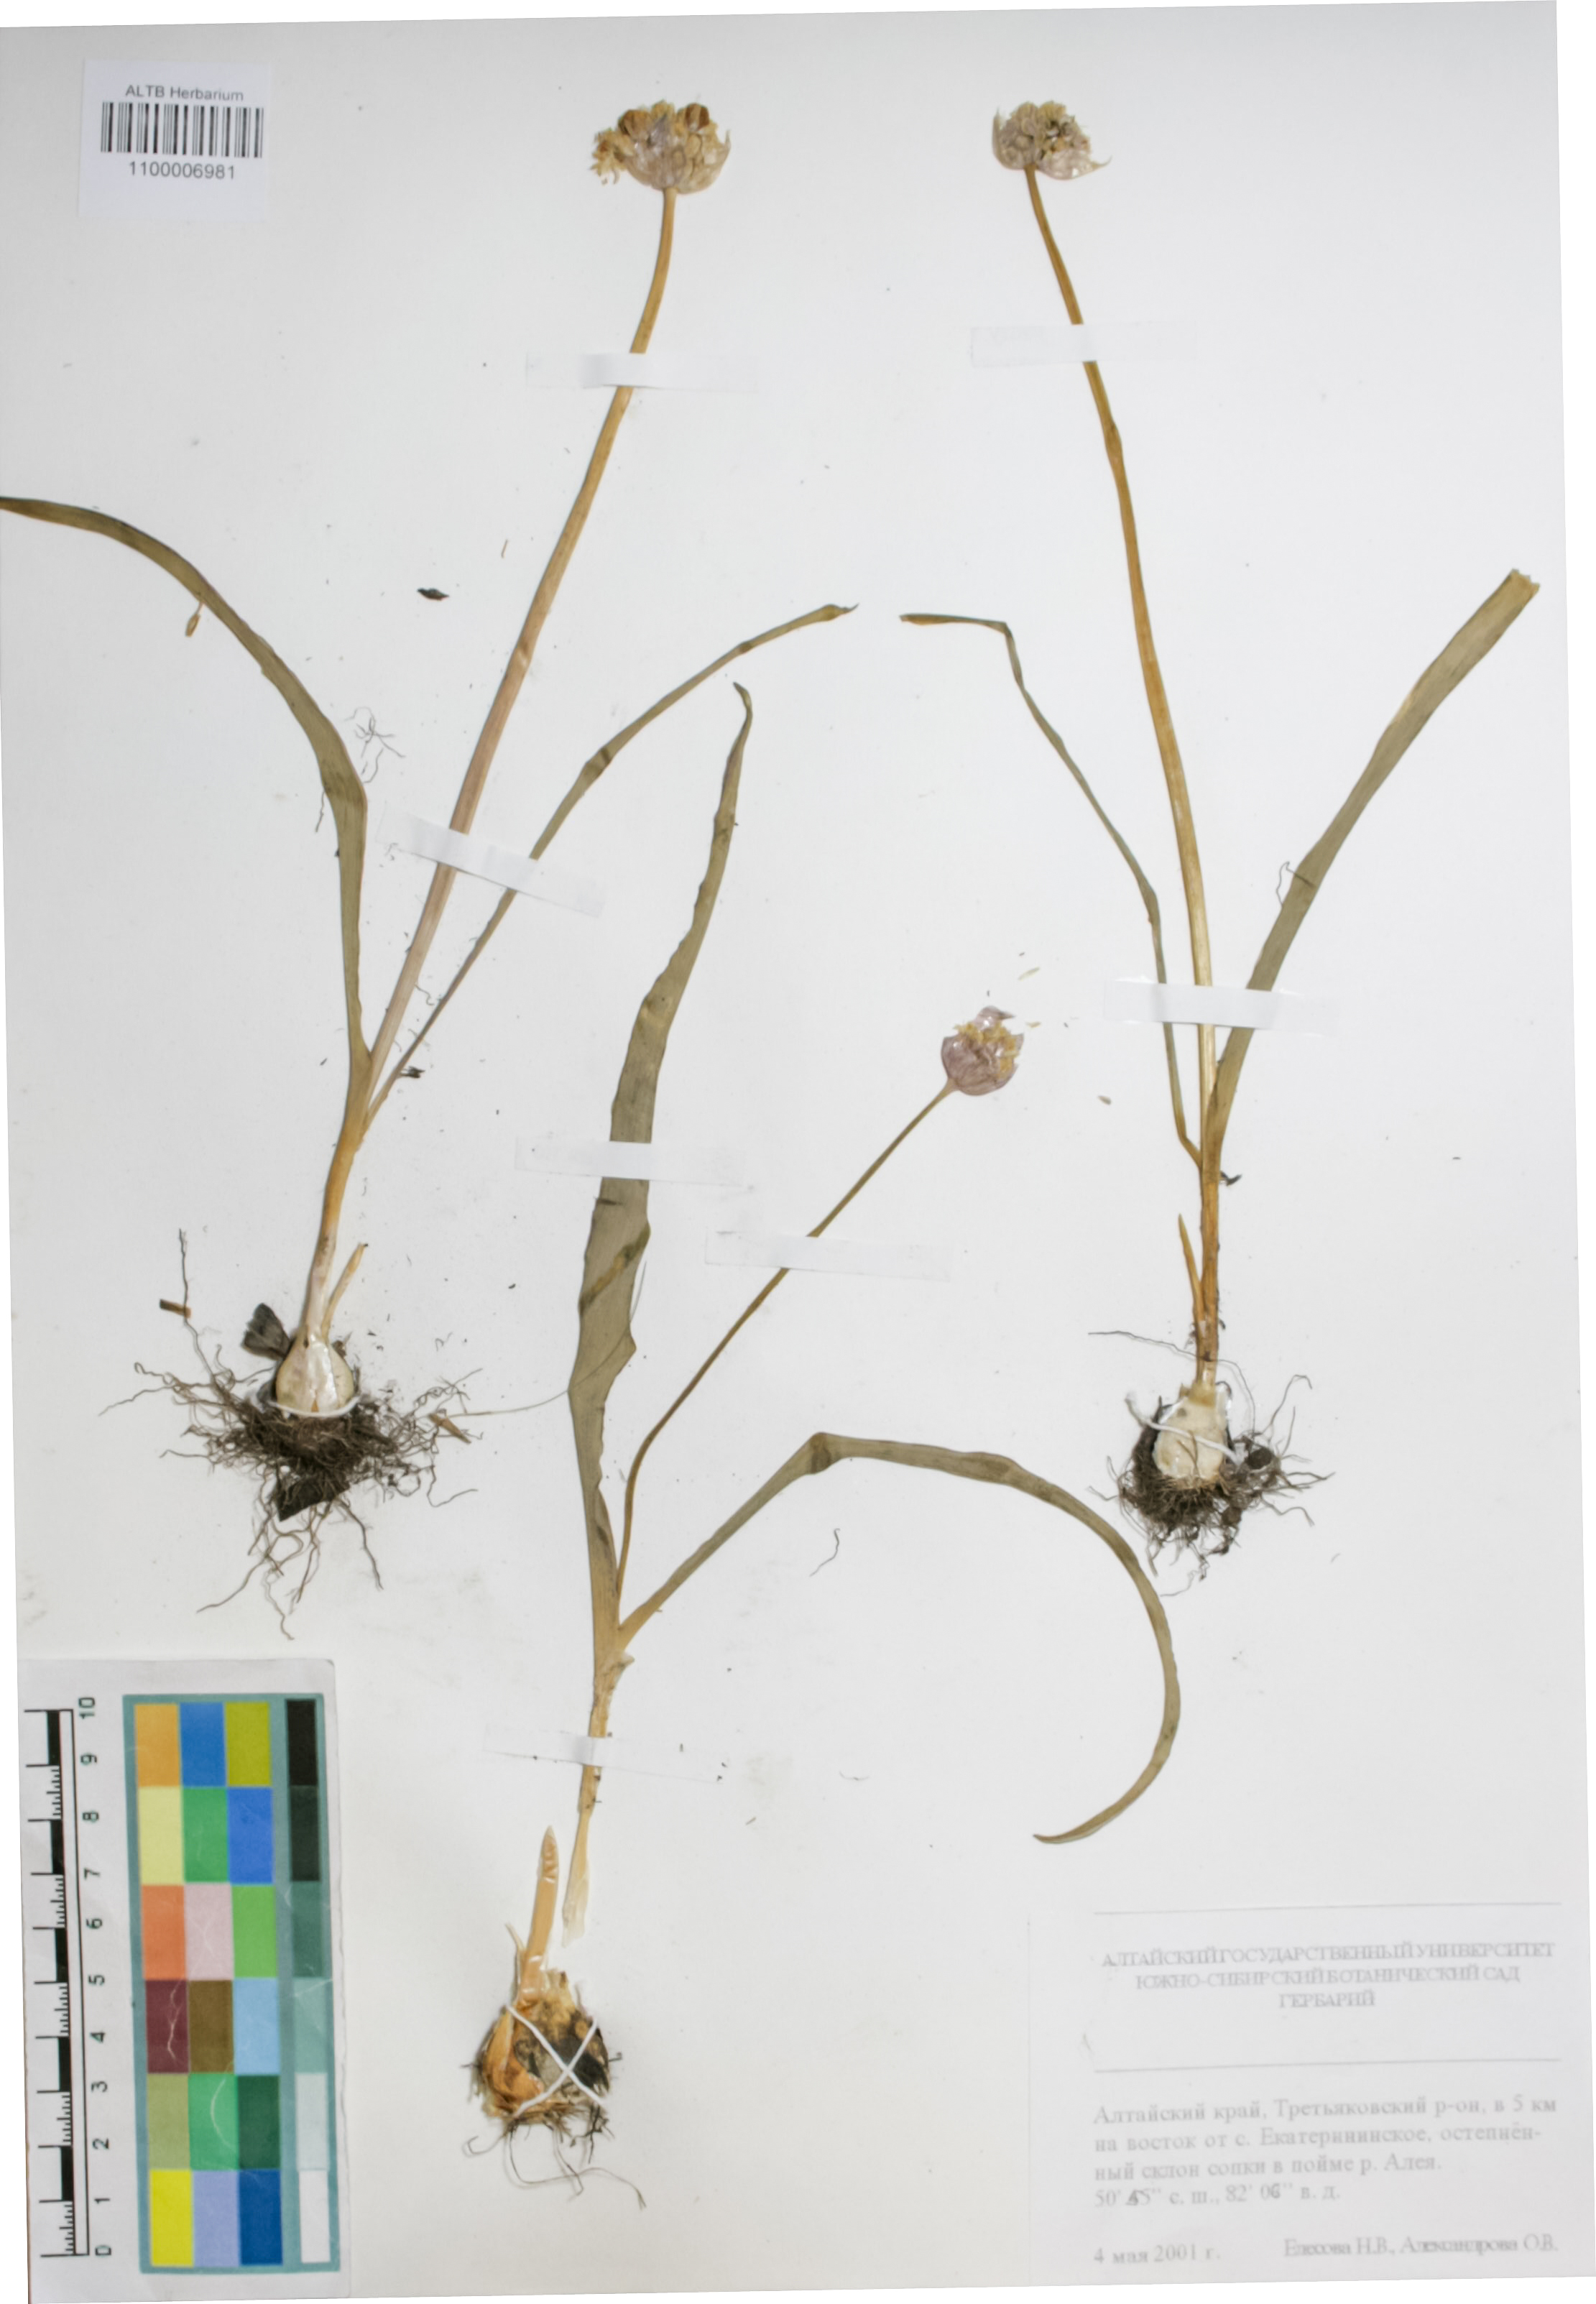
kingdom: Plantae
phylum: Tracheophyta
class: Liliopsida
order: Asparagales
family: Amaryllidaceae
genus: Allium
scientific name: Allium tulipifolium
